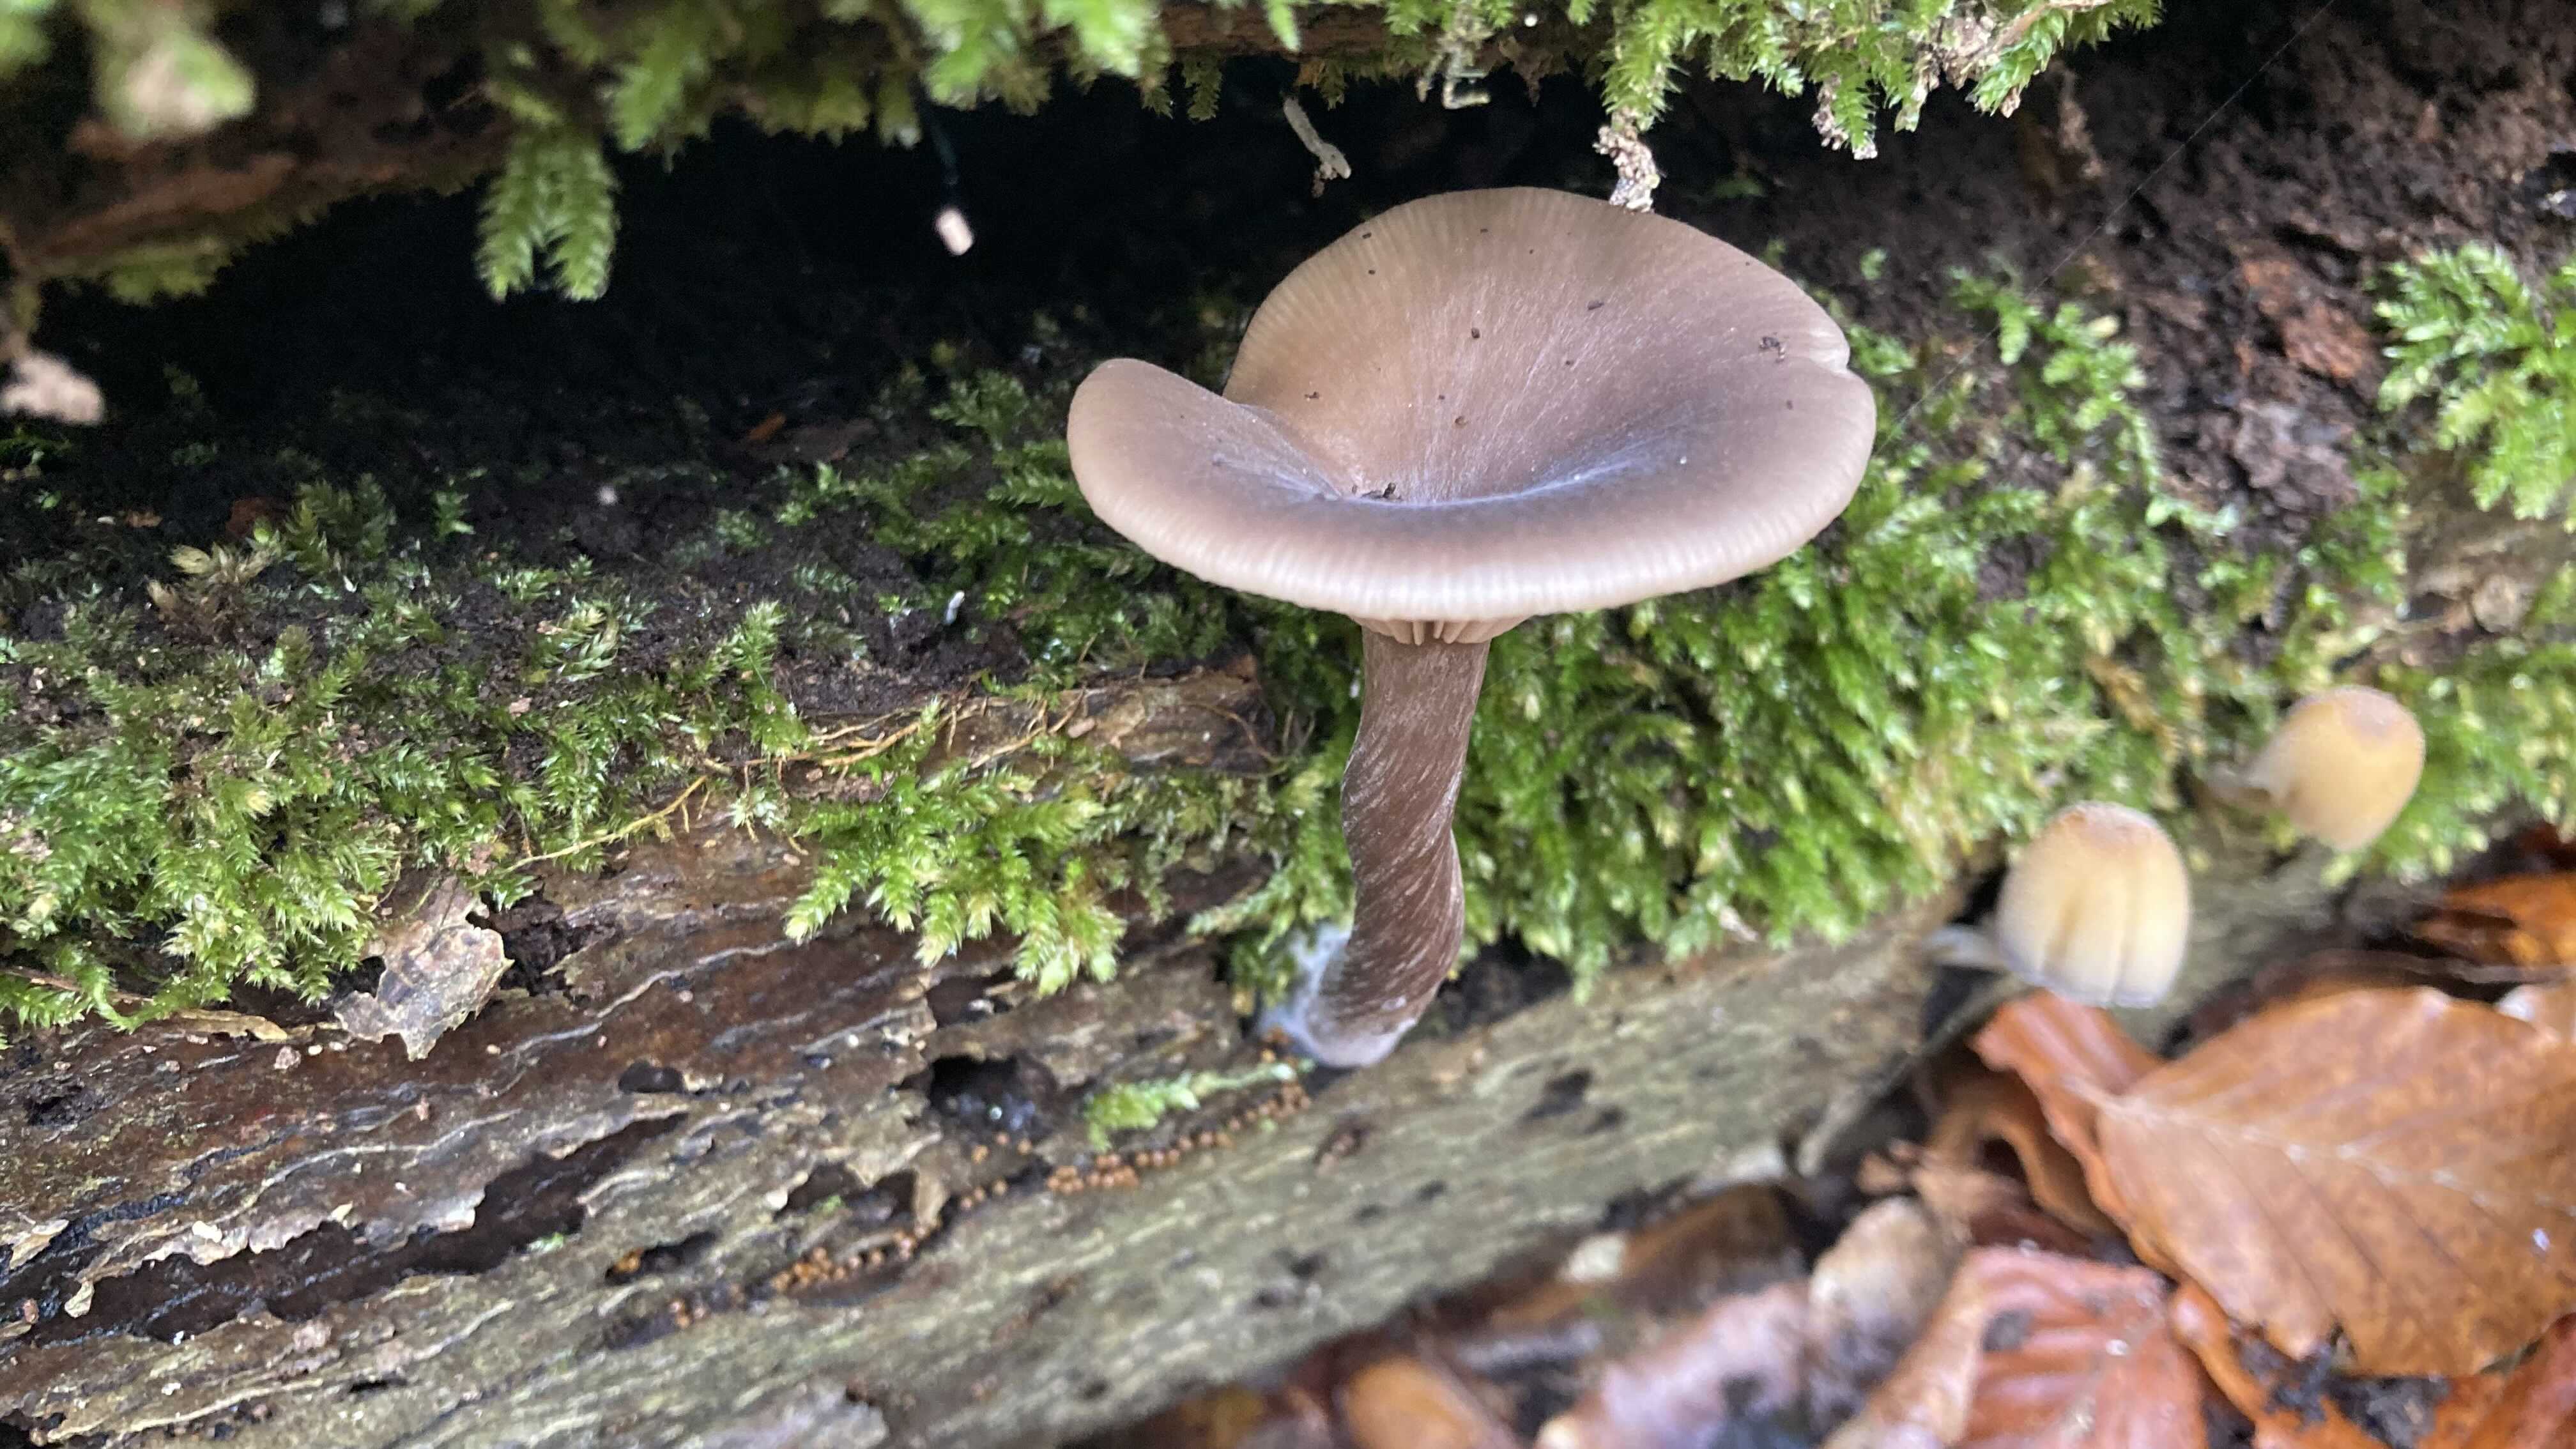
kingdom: Fungi
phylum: Basidiomycota
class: Agaricomycetes
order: Agaricales
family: Pseudoclitocybaceae
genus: Pseudoclitocybe
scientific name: Pseudoclitocybe cyathiformis
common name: almindelig bægertragthat
